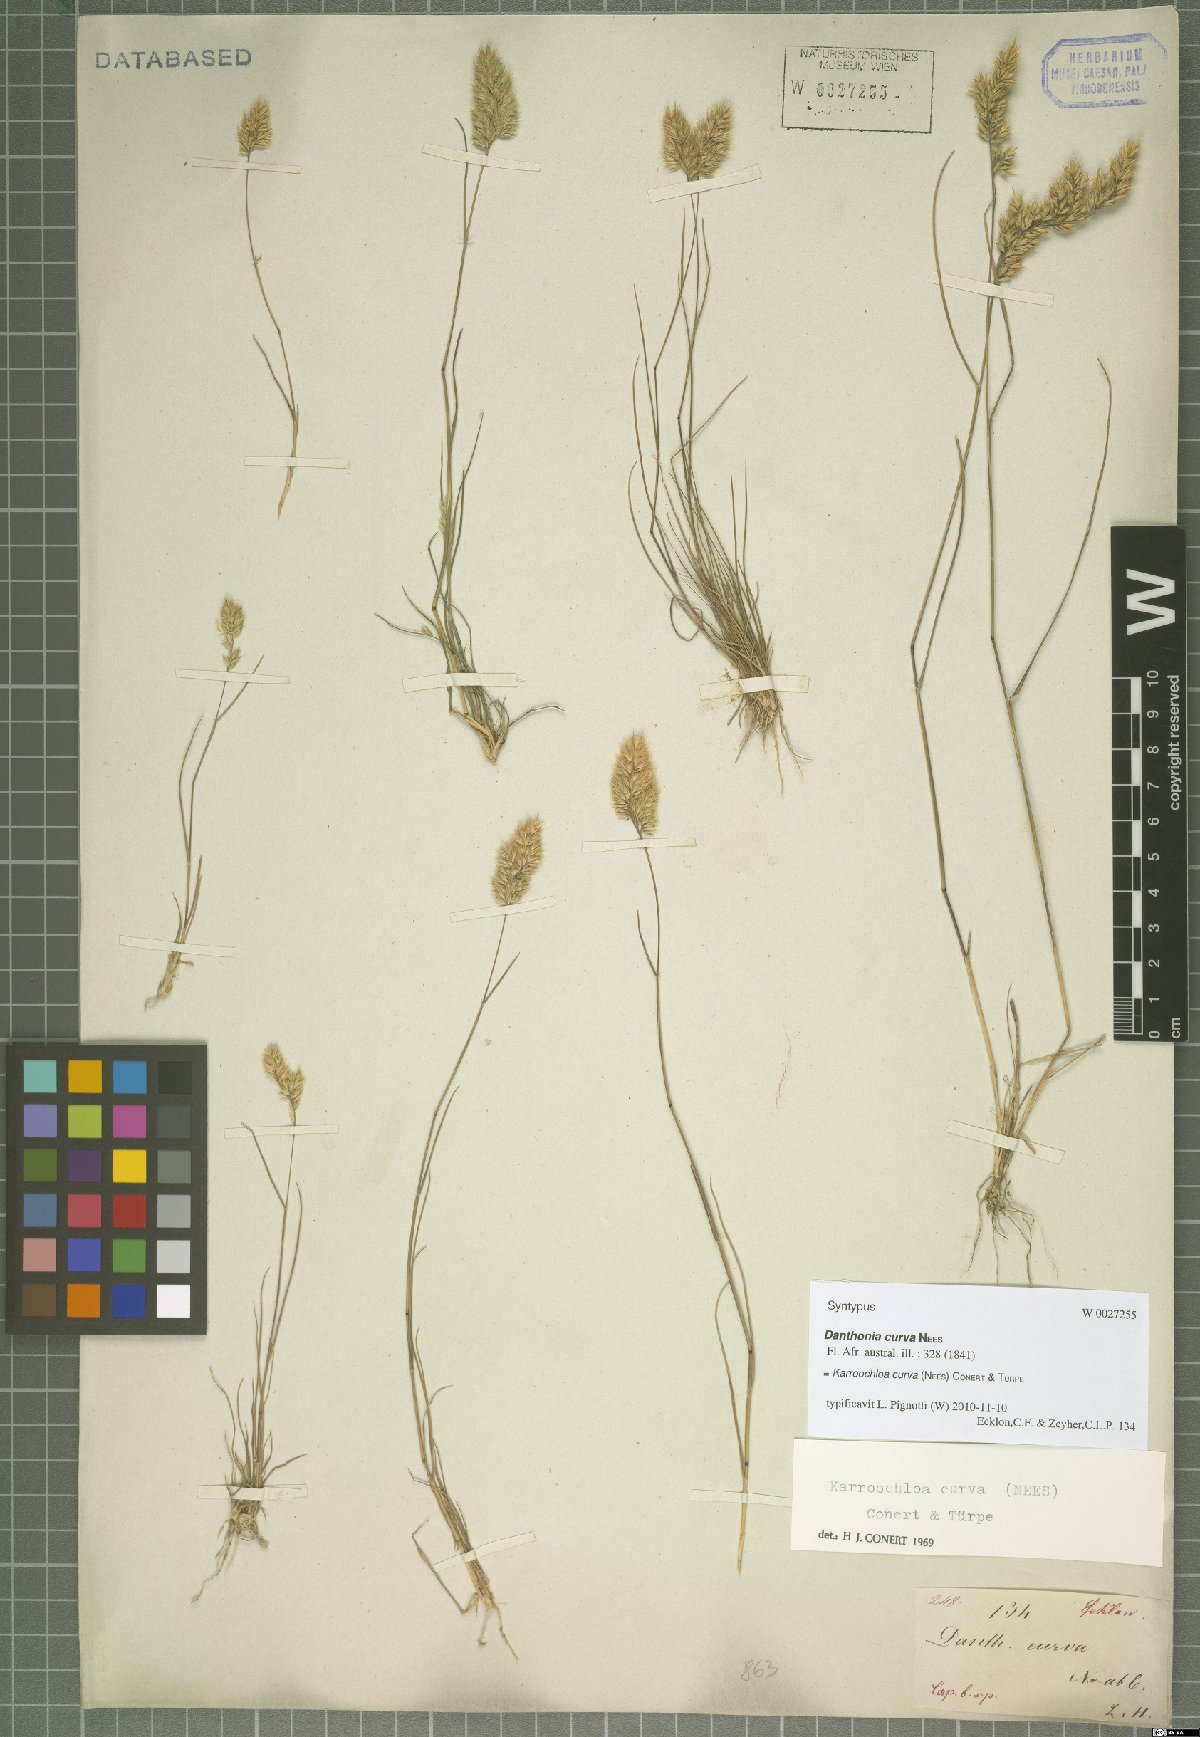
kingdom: Plantae
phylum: Tracheophyta
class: Liliopsida
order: Poales
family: Poaceae
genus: Tribolium
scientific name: Tribolium curvum
